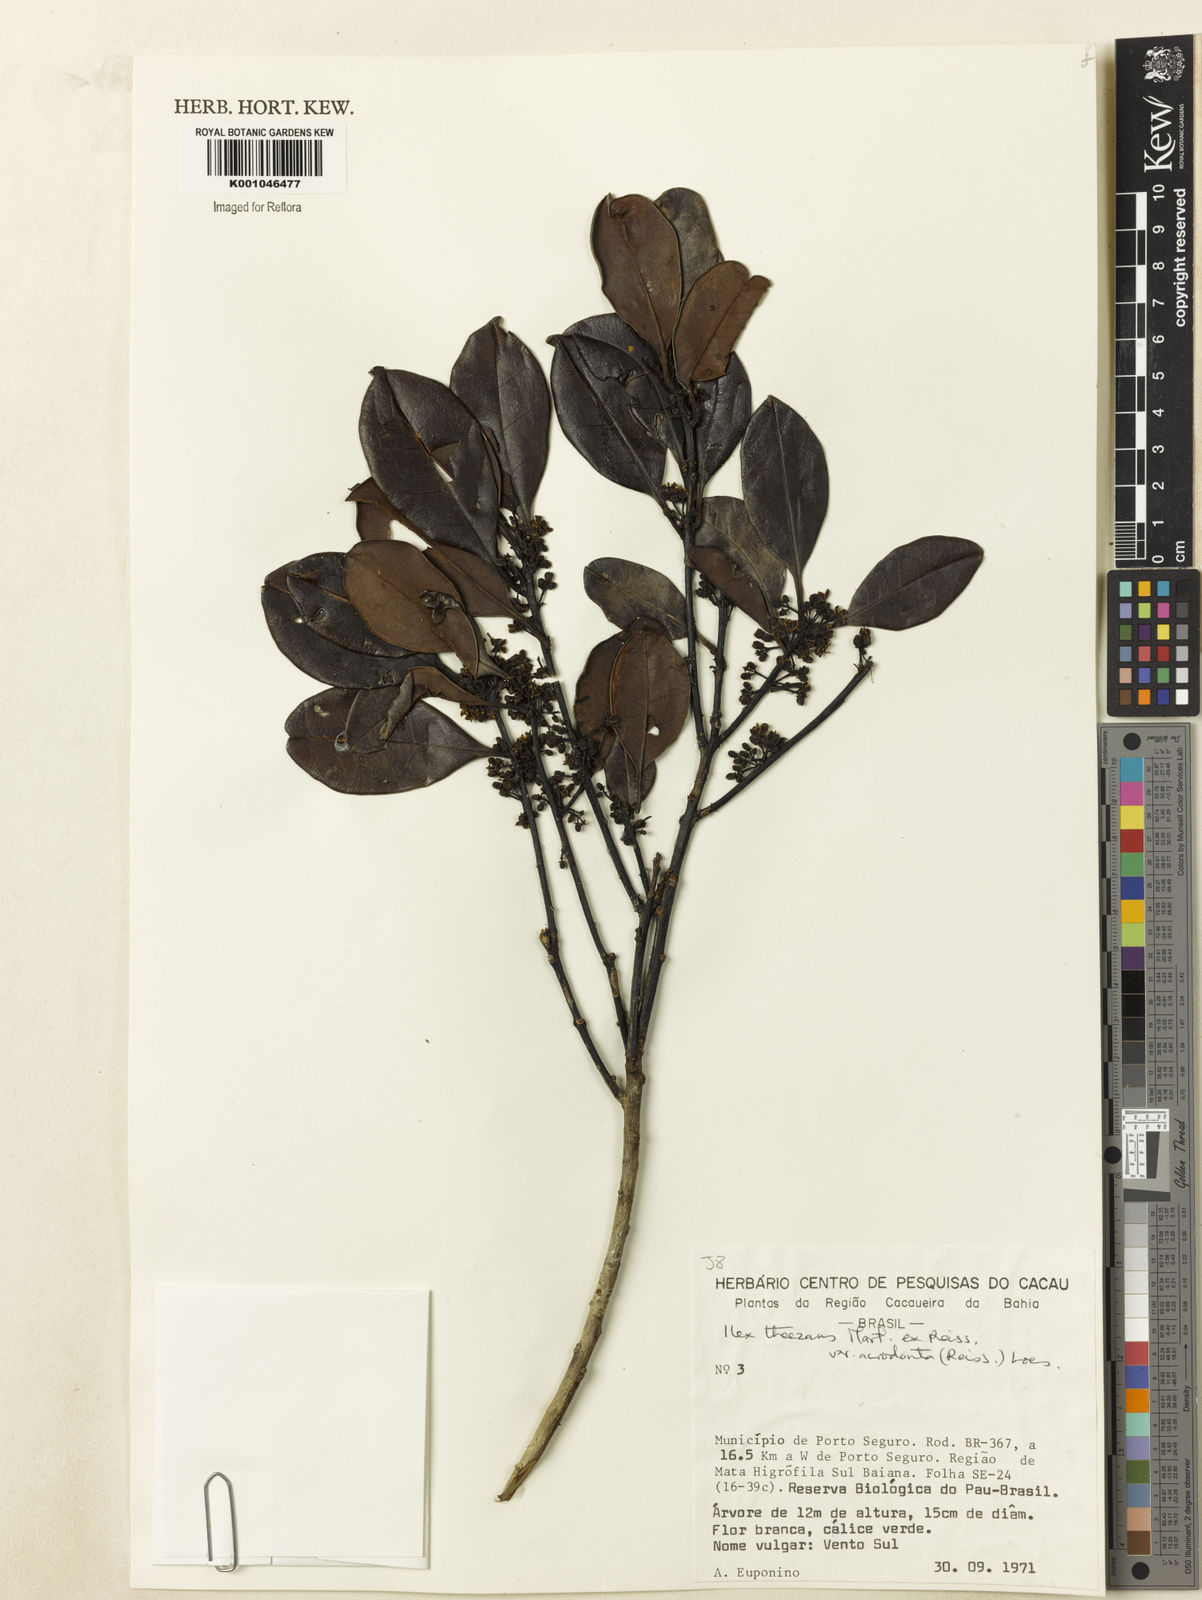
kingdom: Plantae
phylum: Tracheophyta
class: Magnoliopsida
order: Aquifoliales
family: Aquifoliaceae
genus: Ilex
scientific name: Ilex paraguariensis
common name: Paraguay tea
